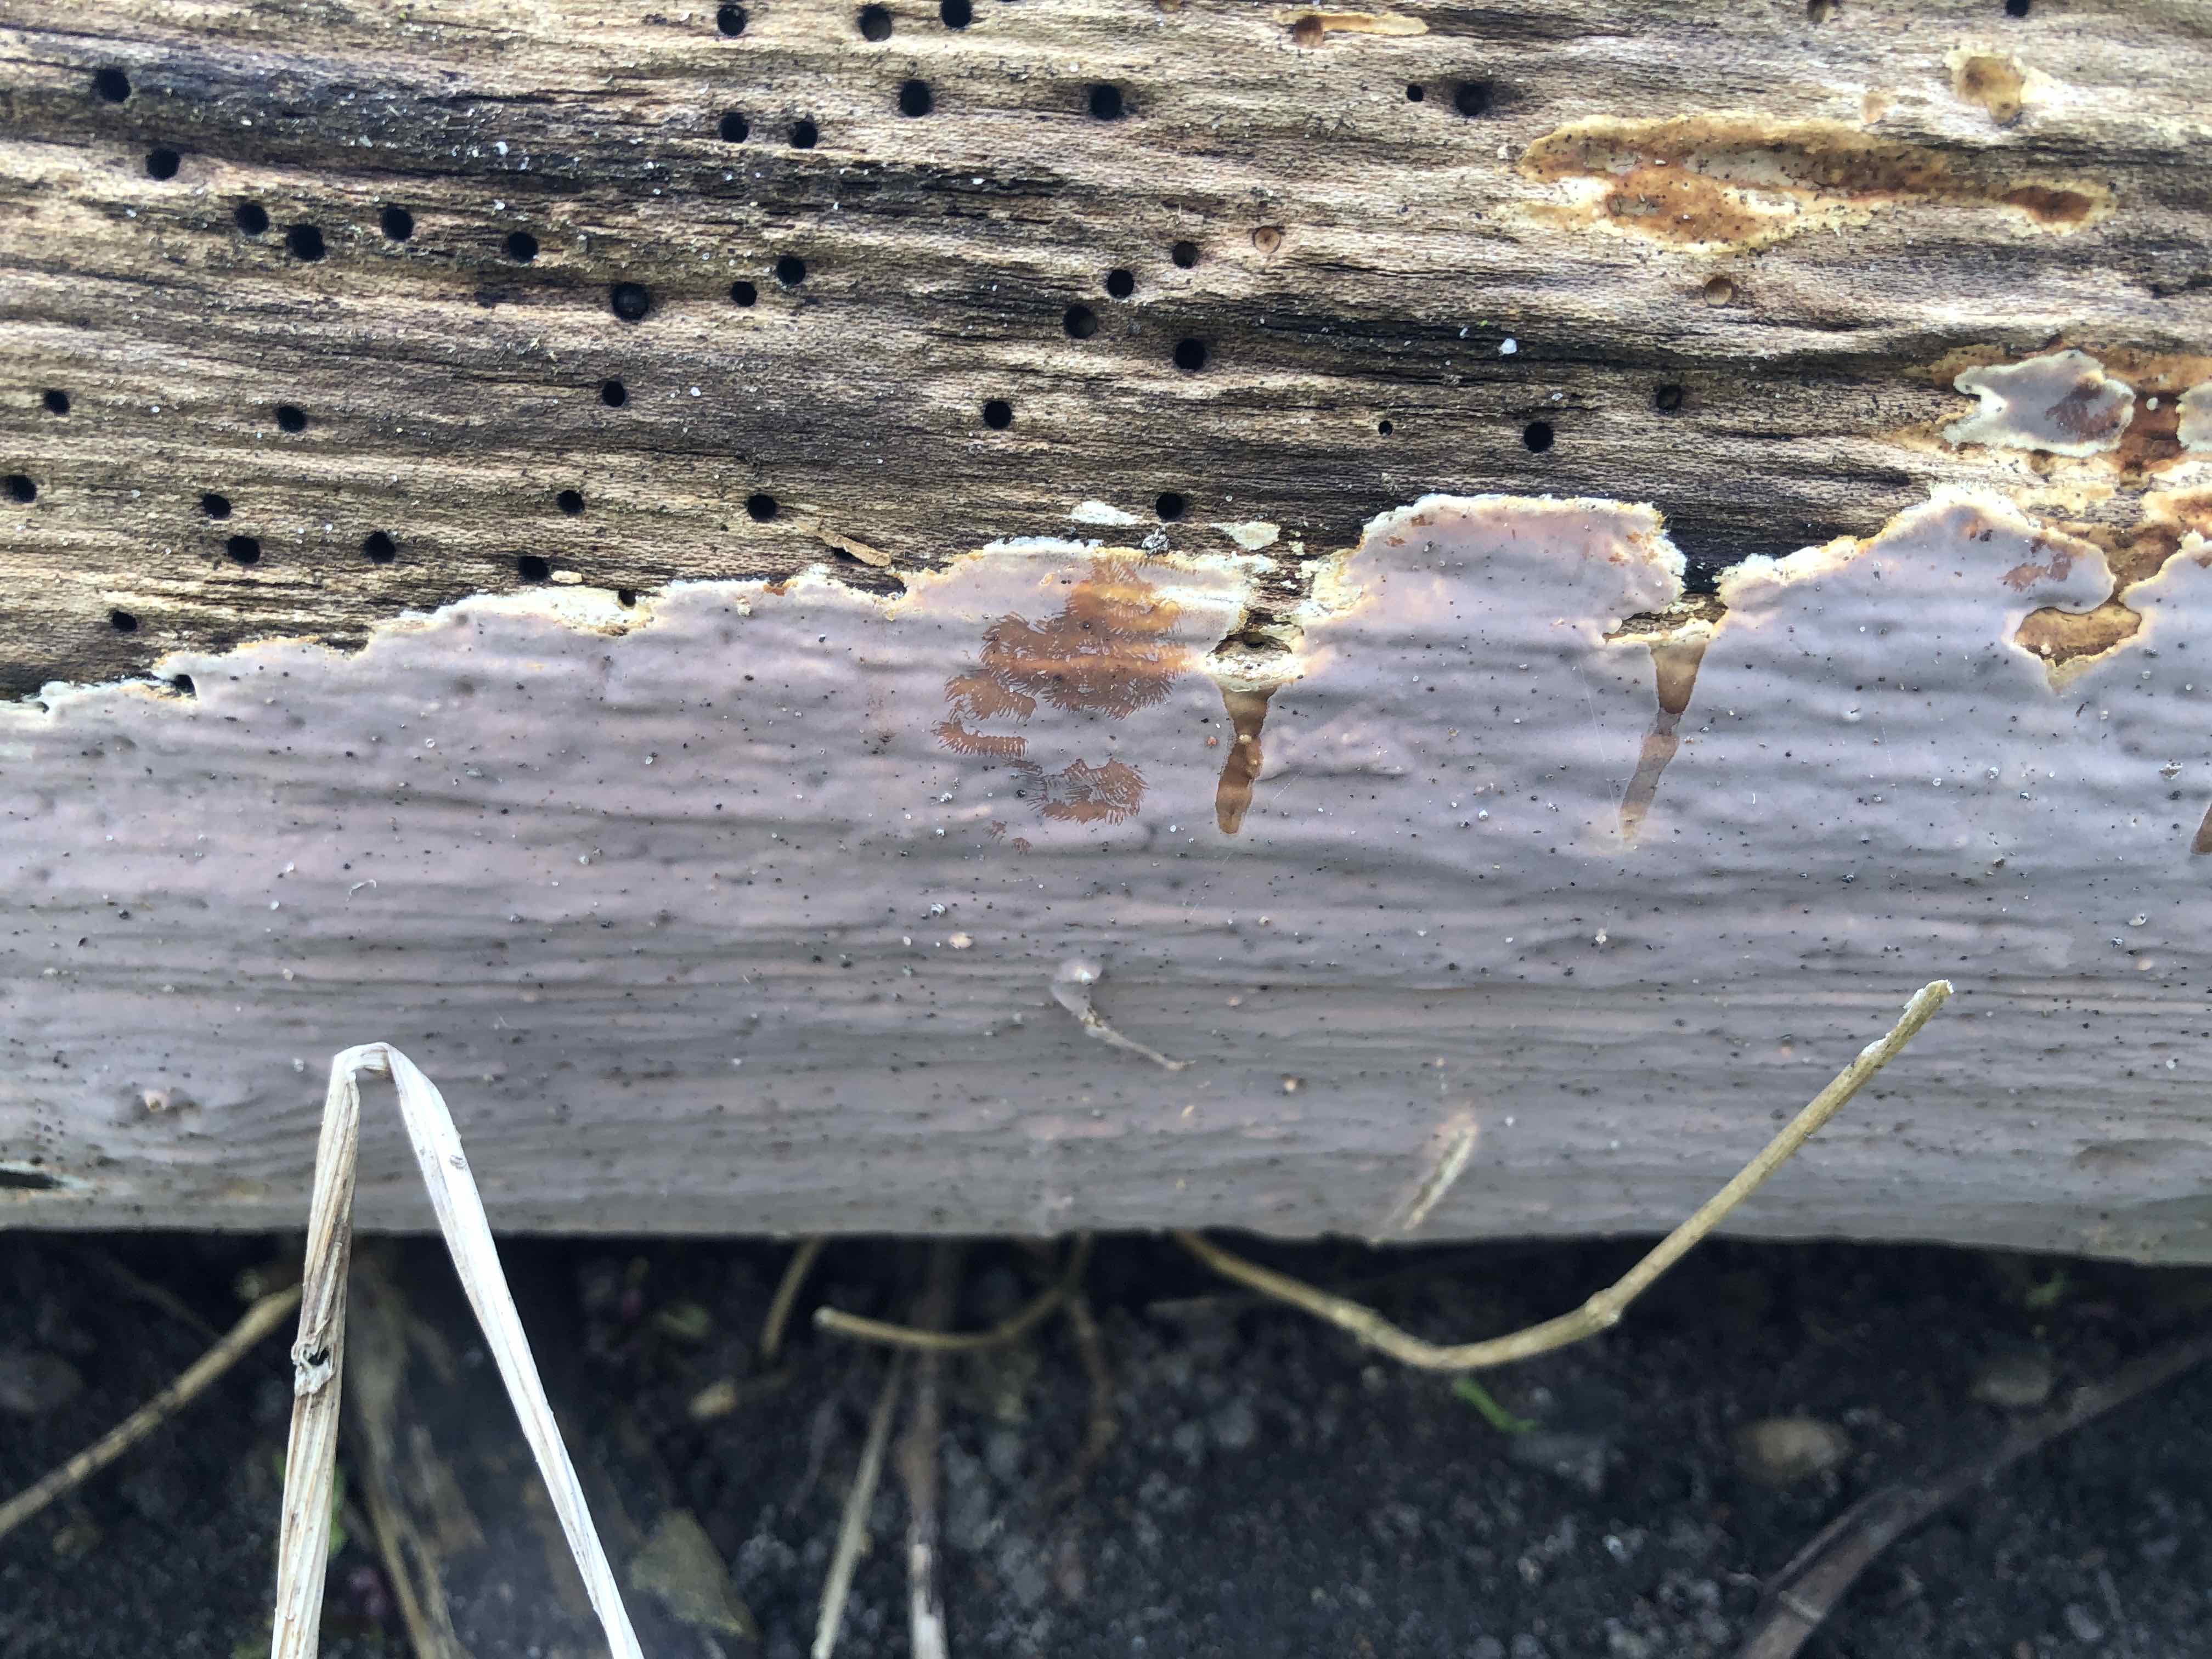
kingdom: Fungi
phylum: Basidiomycota
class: Agaricomycetes
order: Russulales
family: Peniophoraceae
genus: Scytinostroma
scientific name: Scytinostroma hemidichophyticum
